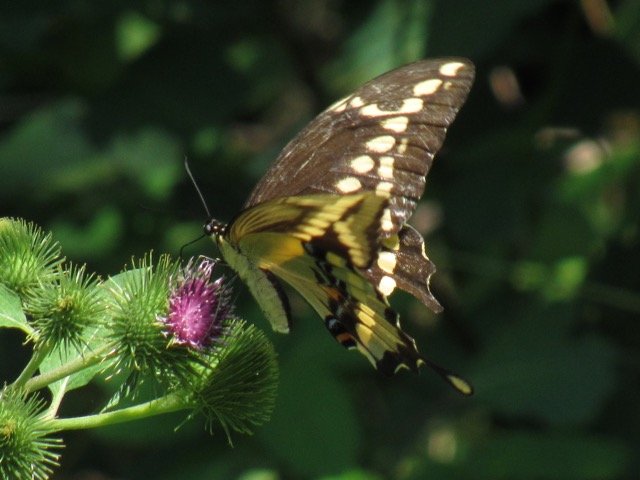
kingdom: Animalia
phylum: Arthropoda
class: Insecta
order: Lepidoptera
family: Papilionidae
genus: Papilio
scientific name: Papilio cresphontes
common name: Eastern Giant Swallowtail
